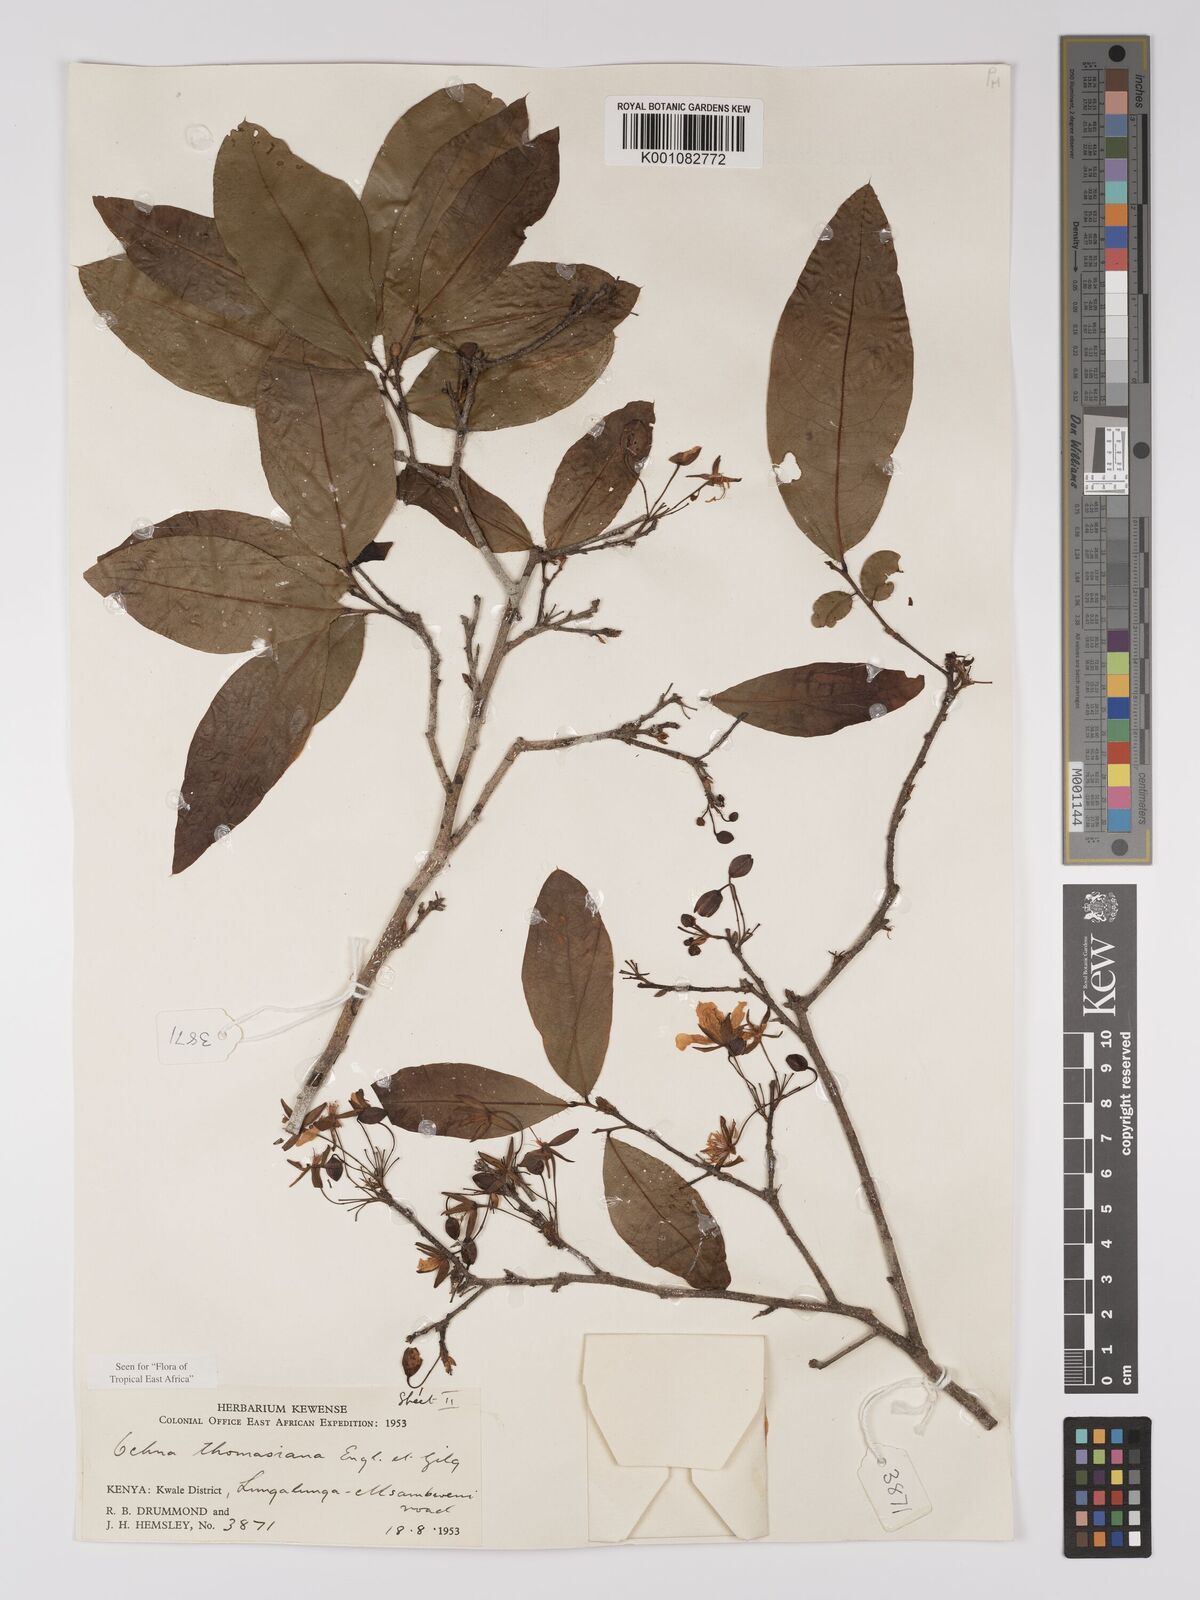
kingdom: Plantae
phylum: Tracheophyta
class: Magnoliopsida
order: Malpighiales
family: Ochnaceae
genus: Ochna
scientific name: Ochna thomasiana
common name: Thomas' bird's-eye bush
